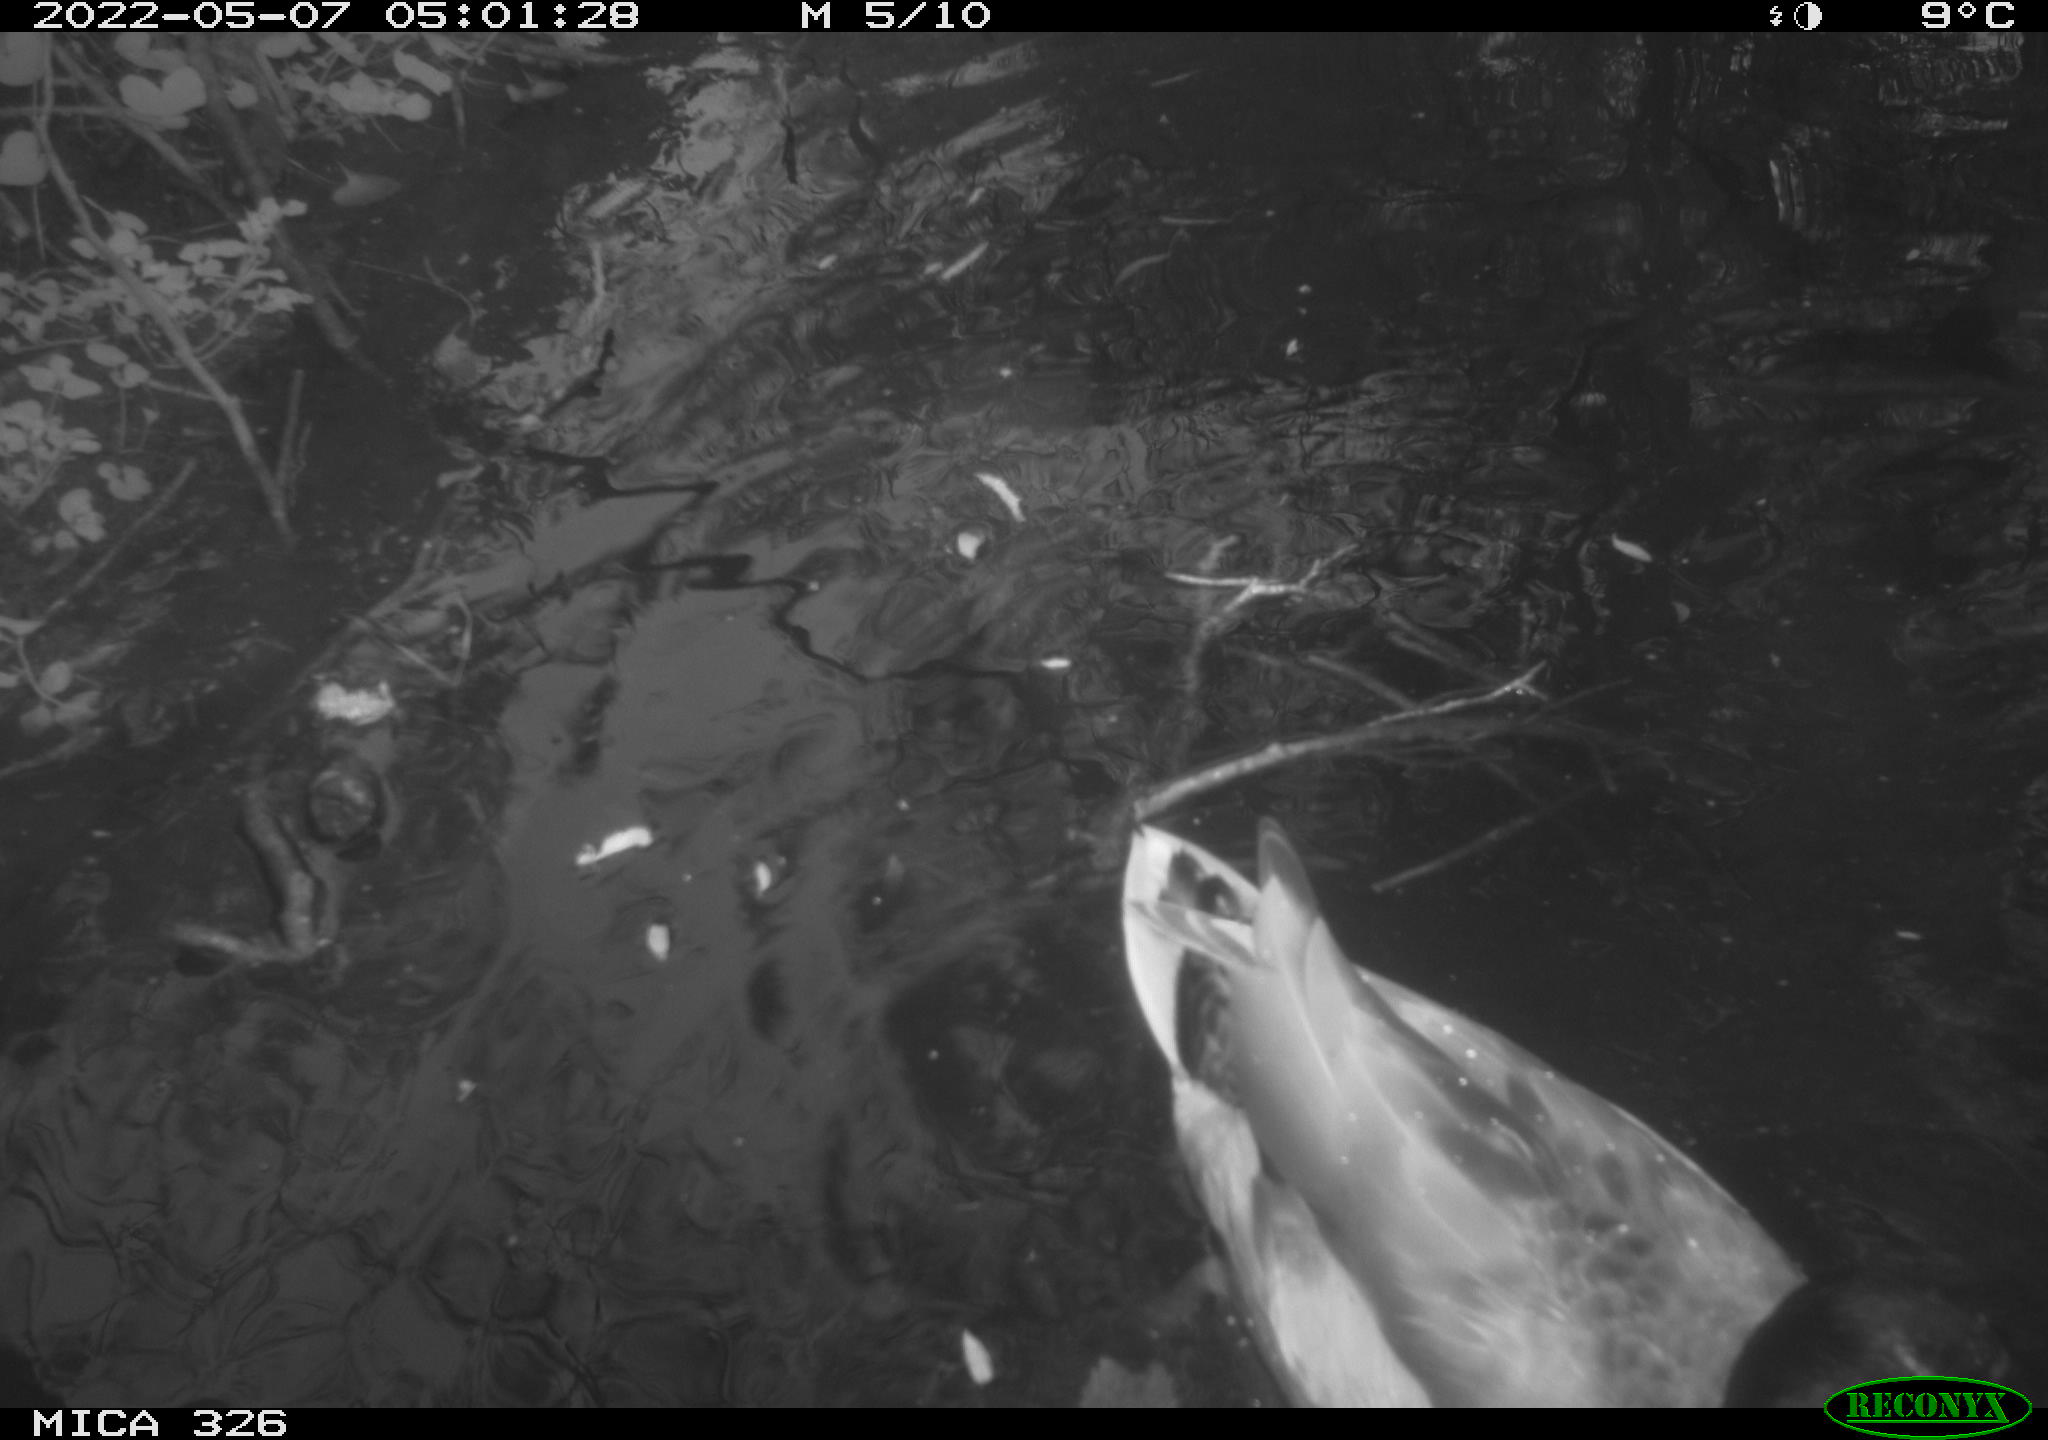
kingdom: Animalia
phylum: Chordata
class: Aves
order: Anseriformes
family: Anatidae
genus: Anas
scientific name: Anas platyrhynchos
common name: Mallard
